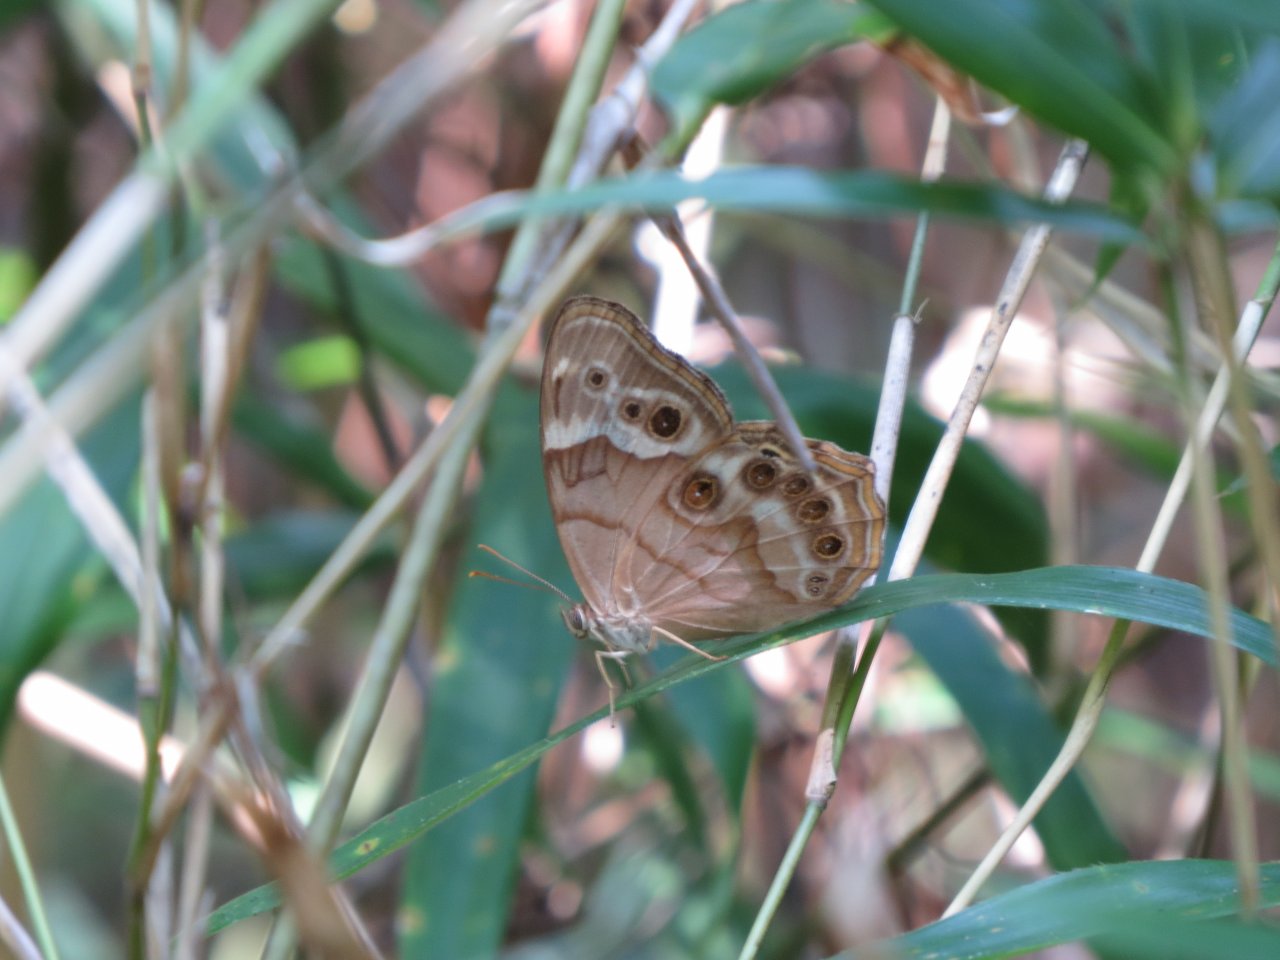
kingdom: Animalia
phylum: Arthropoda
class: Insecta
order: Lepidoptera
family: Nymphalidae
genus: Enodia
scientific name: Enodia portlandia
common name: Southern Pearly Eye
